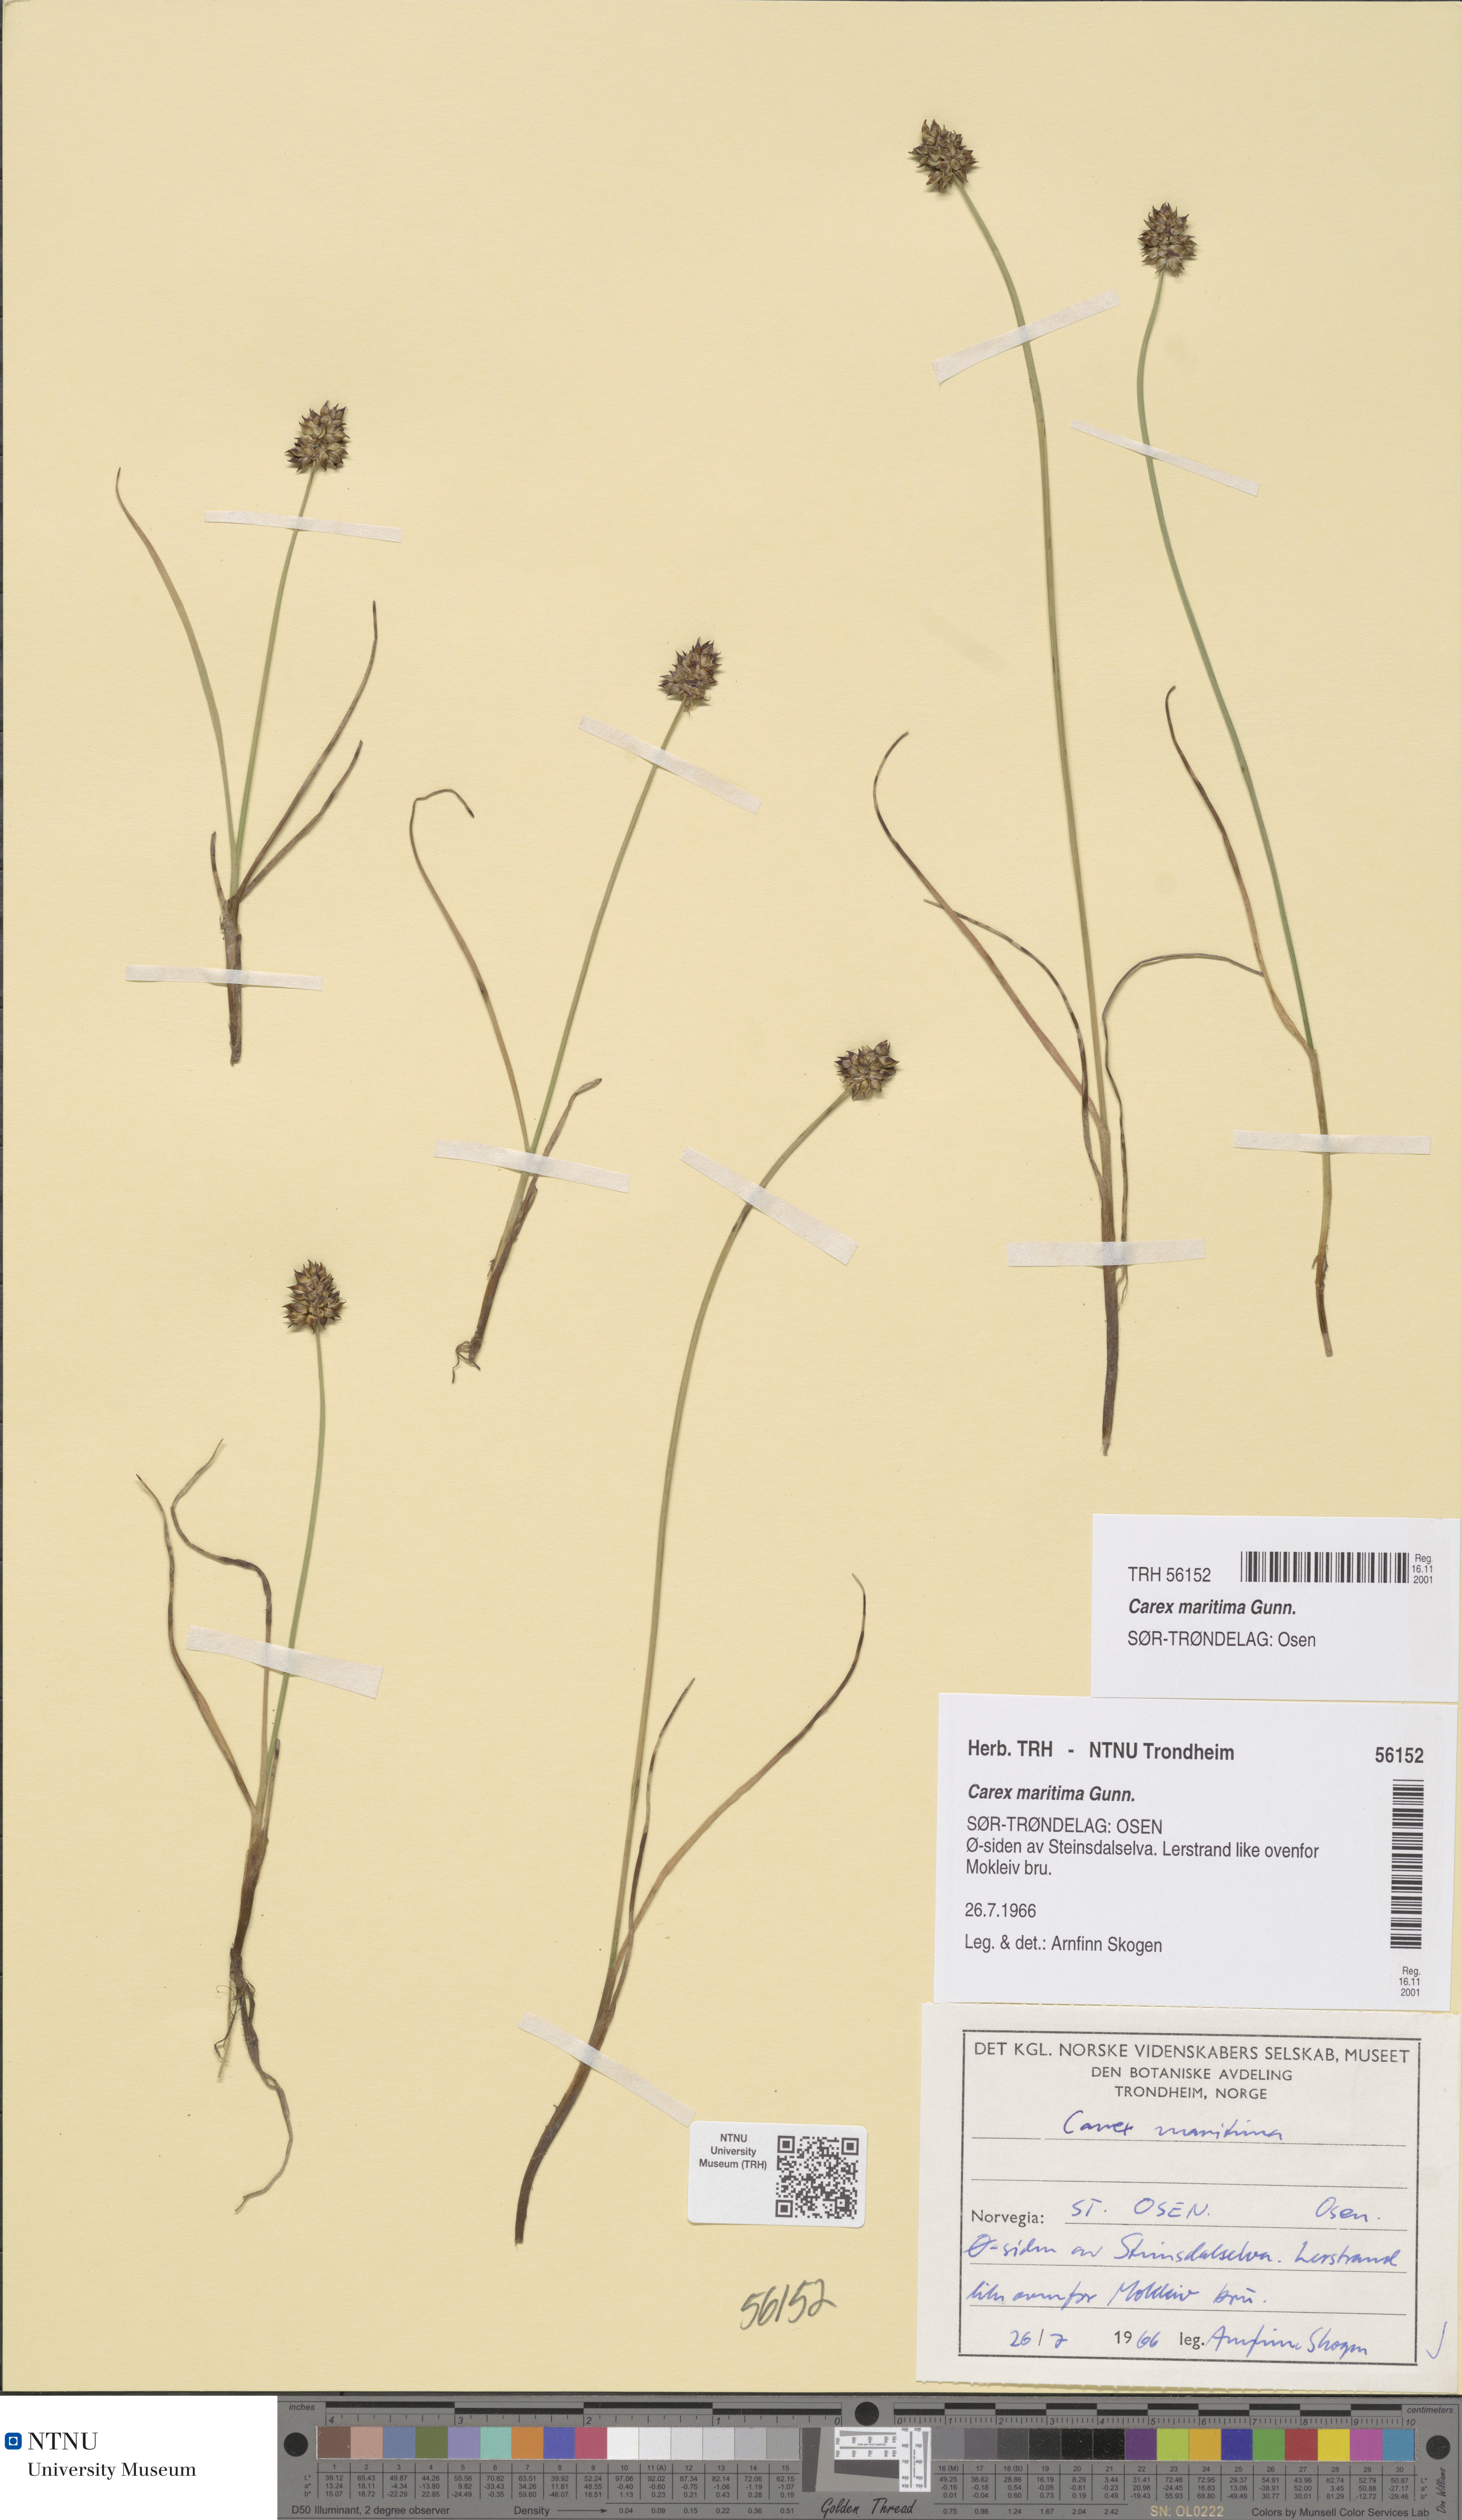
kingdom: Plantae
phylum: Tracheophyta
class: Liliopsida
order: Poales
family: Cyperaceae
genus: Carex
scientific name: Carex maritima
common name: Curved sedge
